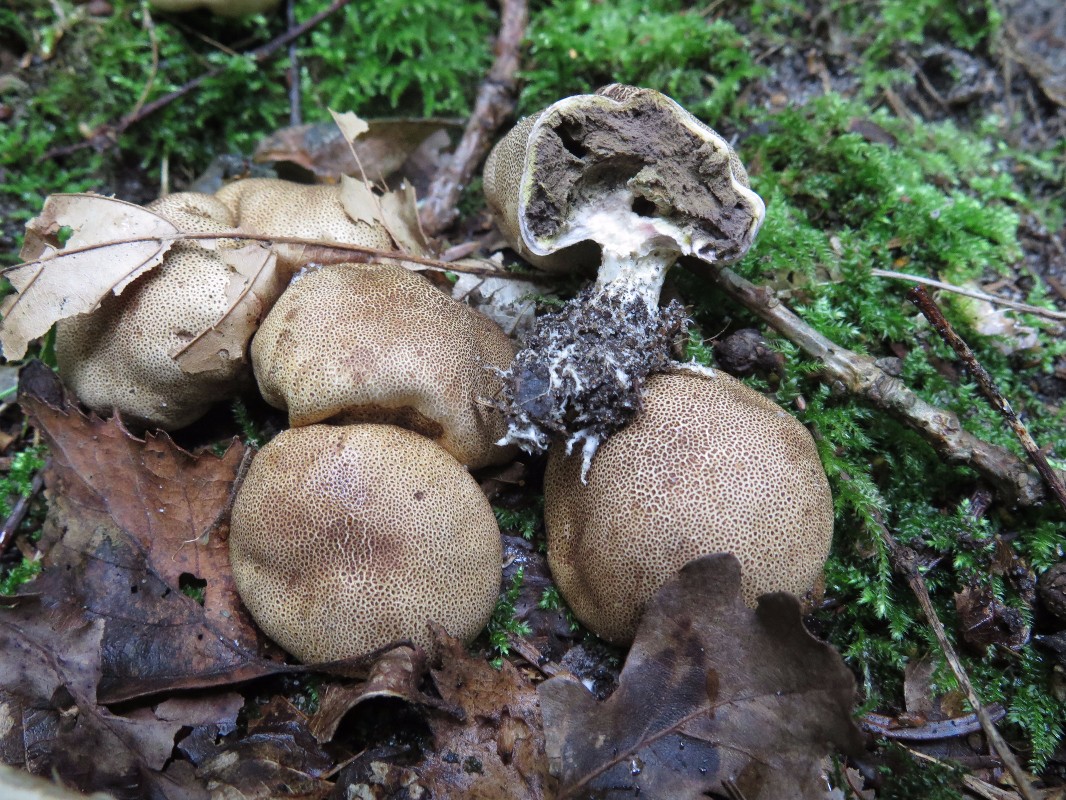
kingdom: Fungi
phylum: Basidiomycota
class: Agaricomycetes
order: Boletales
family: Sclerodermataceae
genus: Scleroderma
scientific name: Scleroderma areolatum
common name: plettet bruskbold
